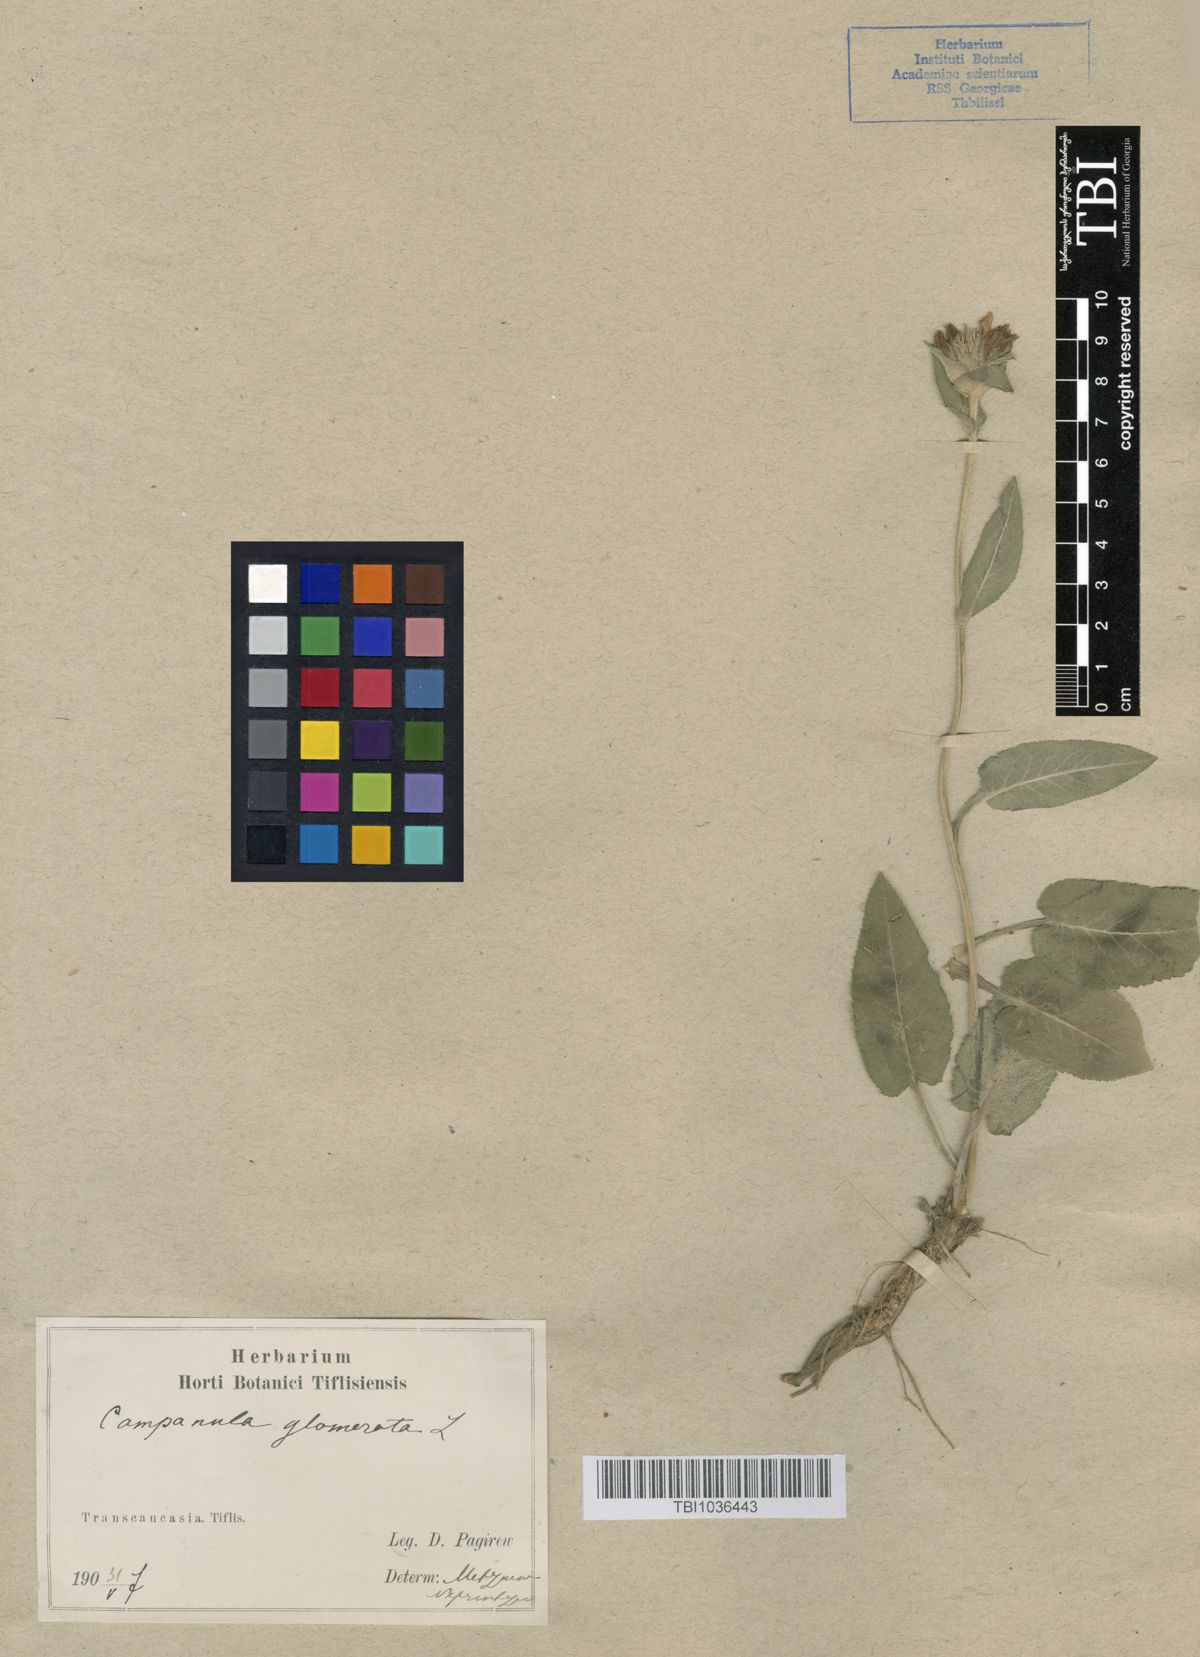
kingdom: Plantae
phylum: Tracheophyta
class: Magnoliopsida
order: Asterales
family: Campanulaceae
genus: Campanula
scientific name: Campanula glomerata
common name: Clustered bellflower
